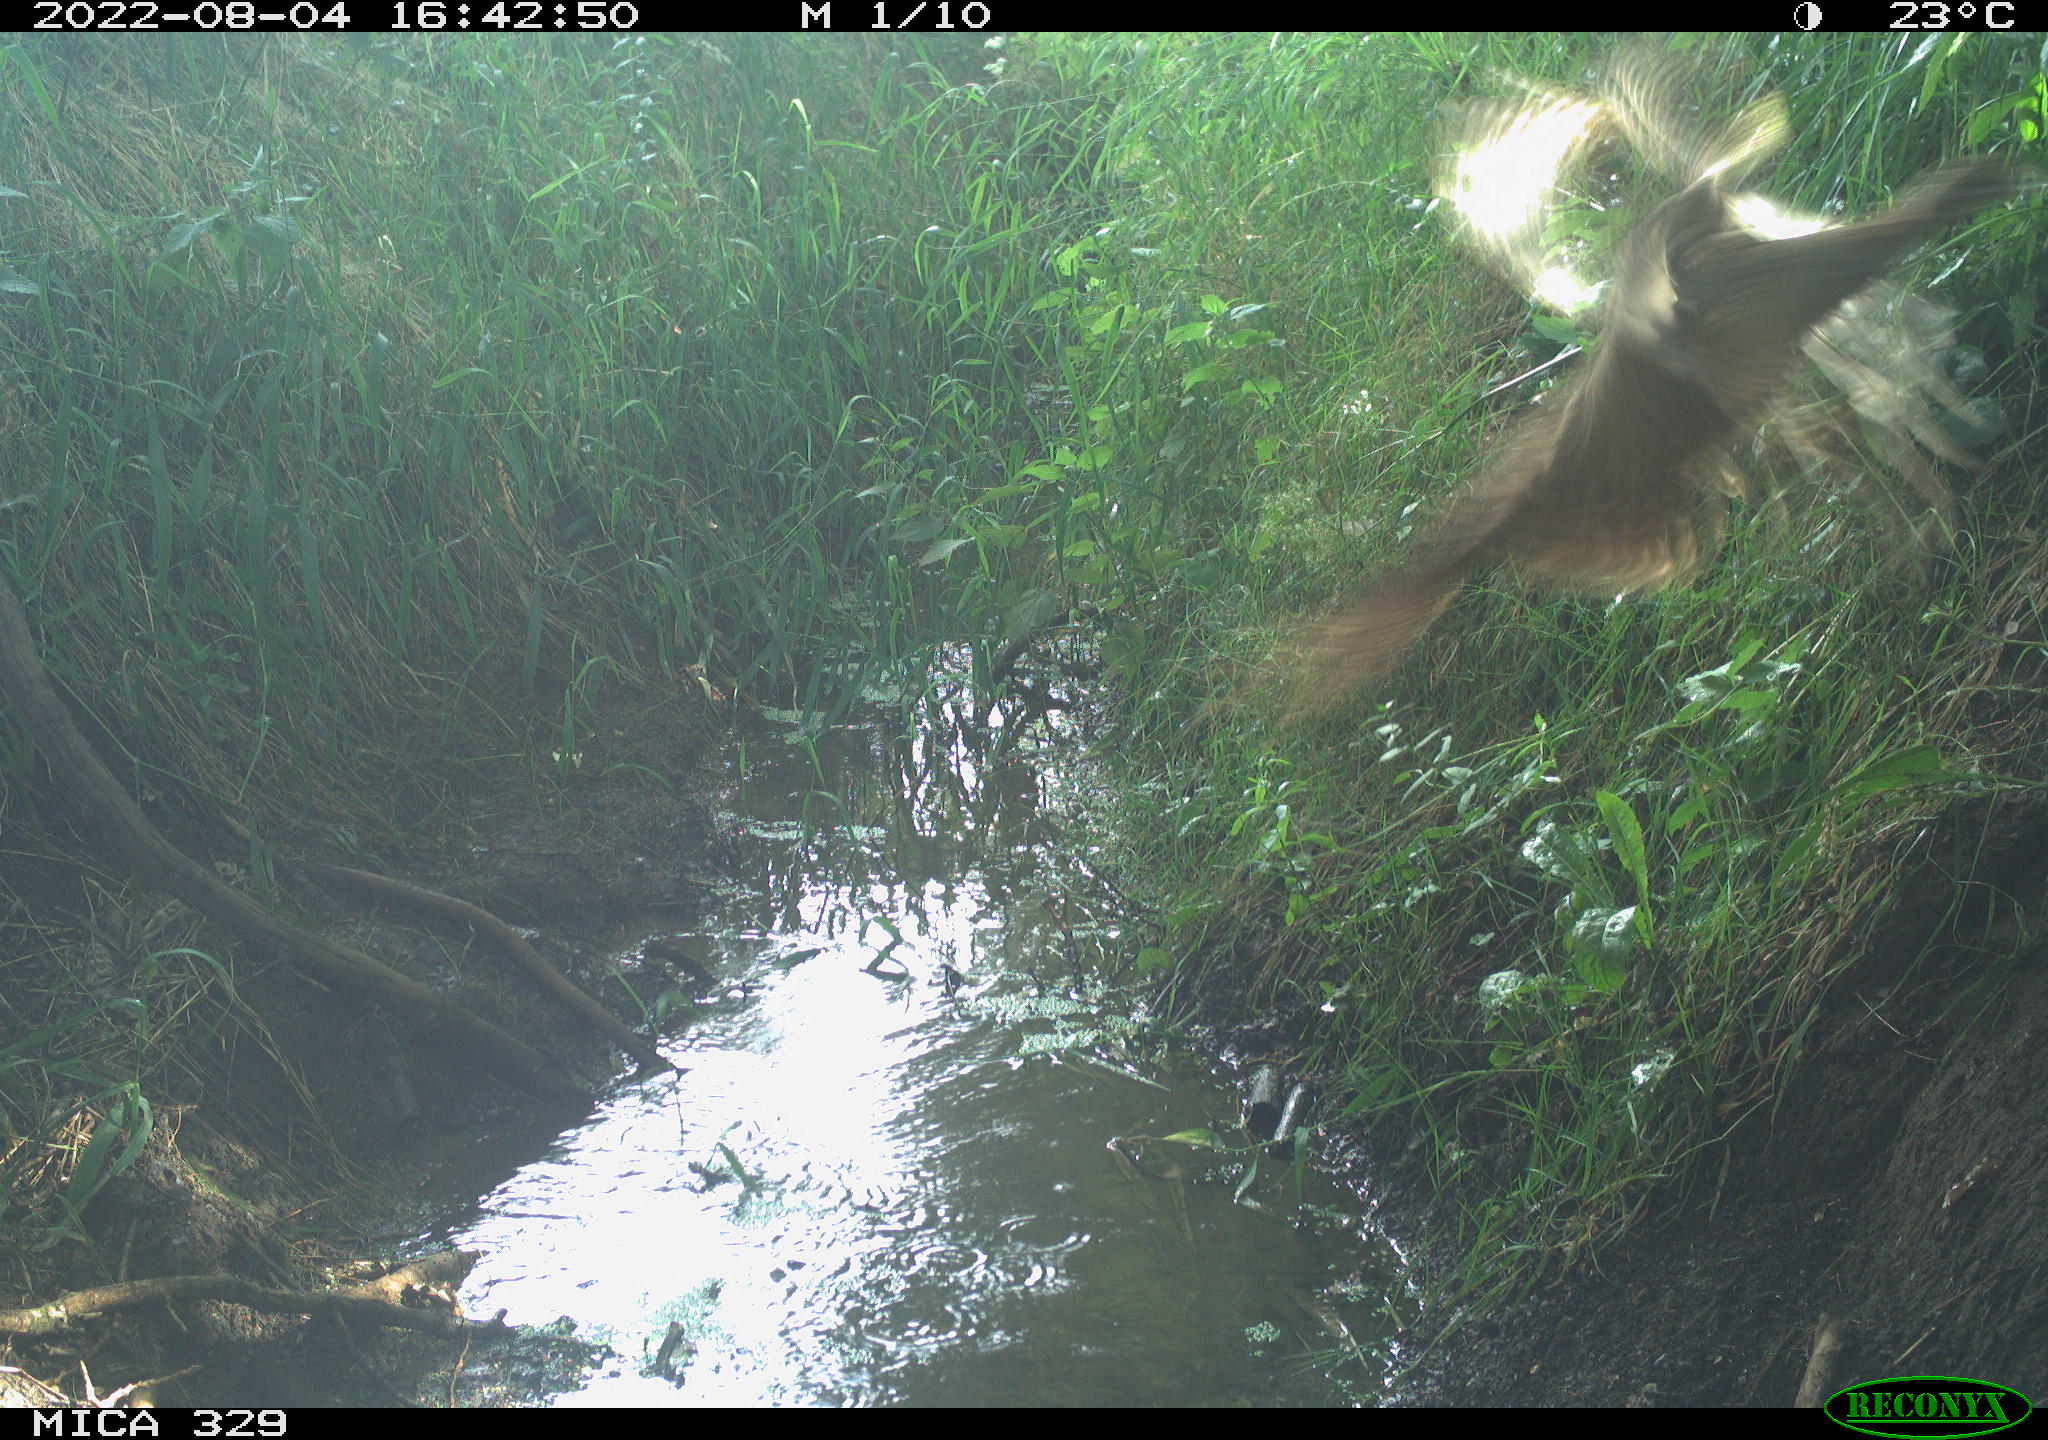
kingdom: Animalia
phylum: Chordata
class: Aves
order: Galliformes
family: Phasianidae
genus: Phasianus
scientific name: Phasianus colchicus
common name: Common pheasant
